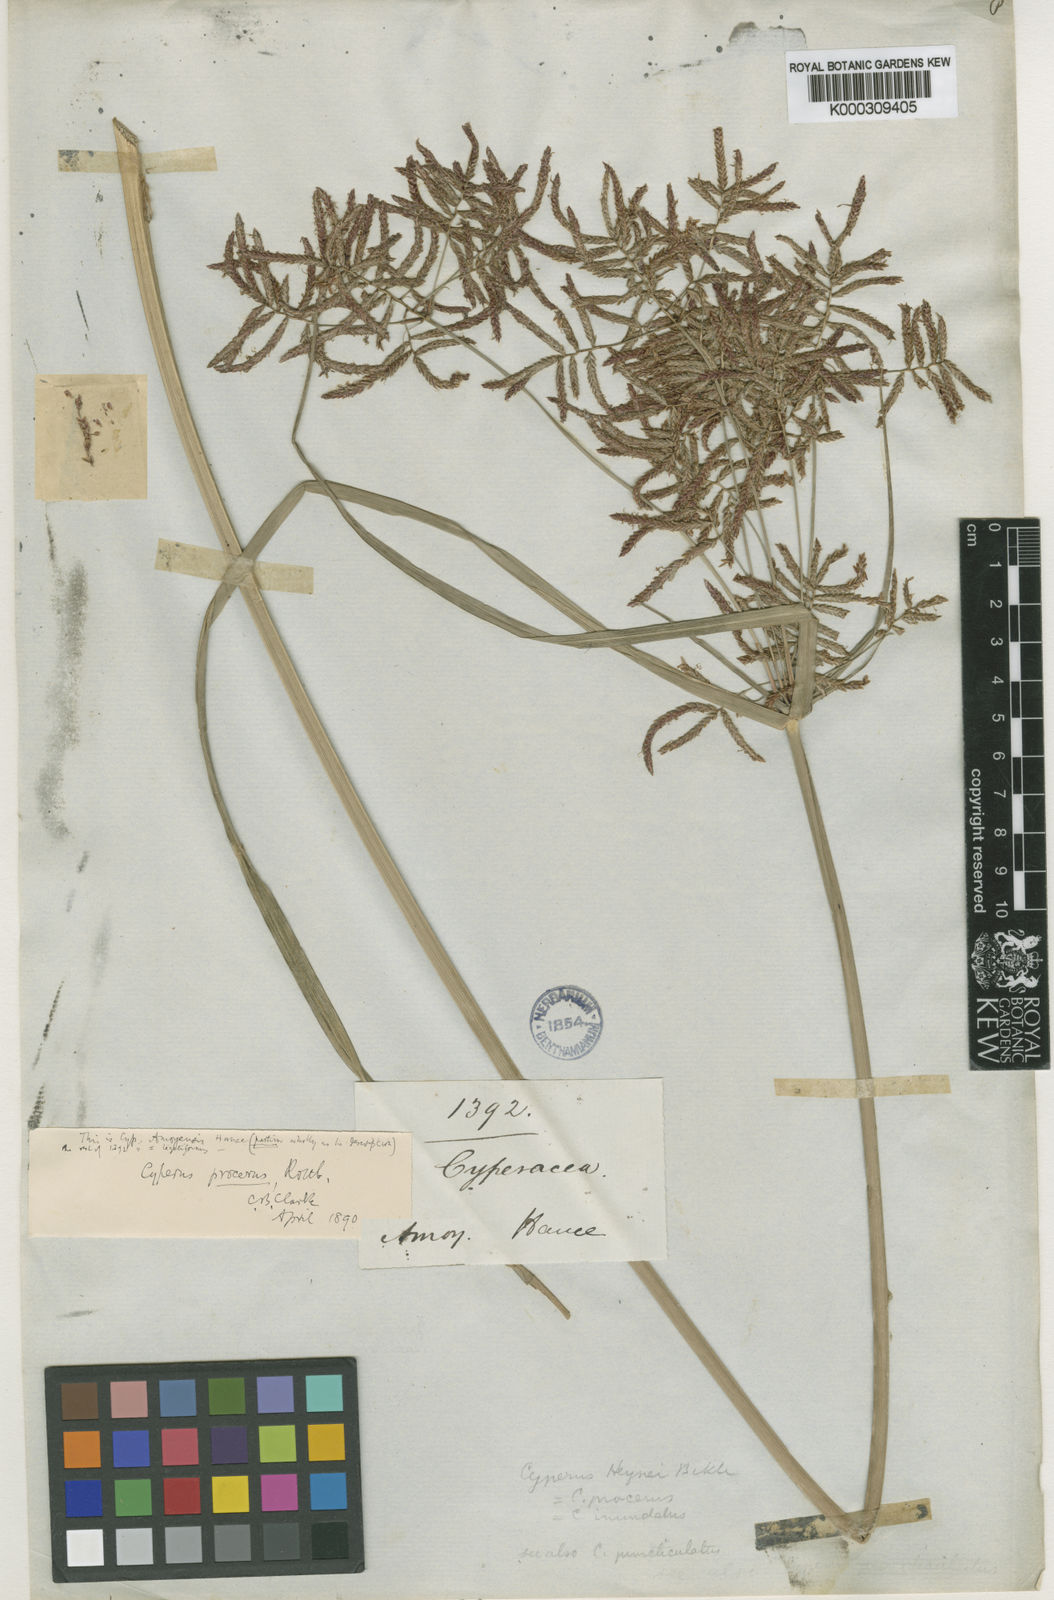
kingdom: Plantae
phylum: Tracheophyta
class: Liliopsida
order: Poales
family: Cyperaceae
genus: Cyperus
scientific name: Cyperus procerus
